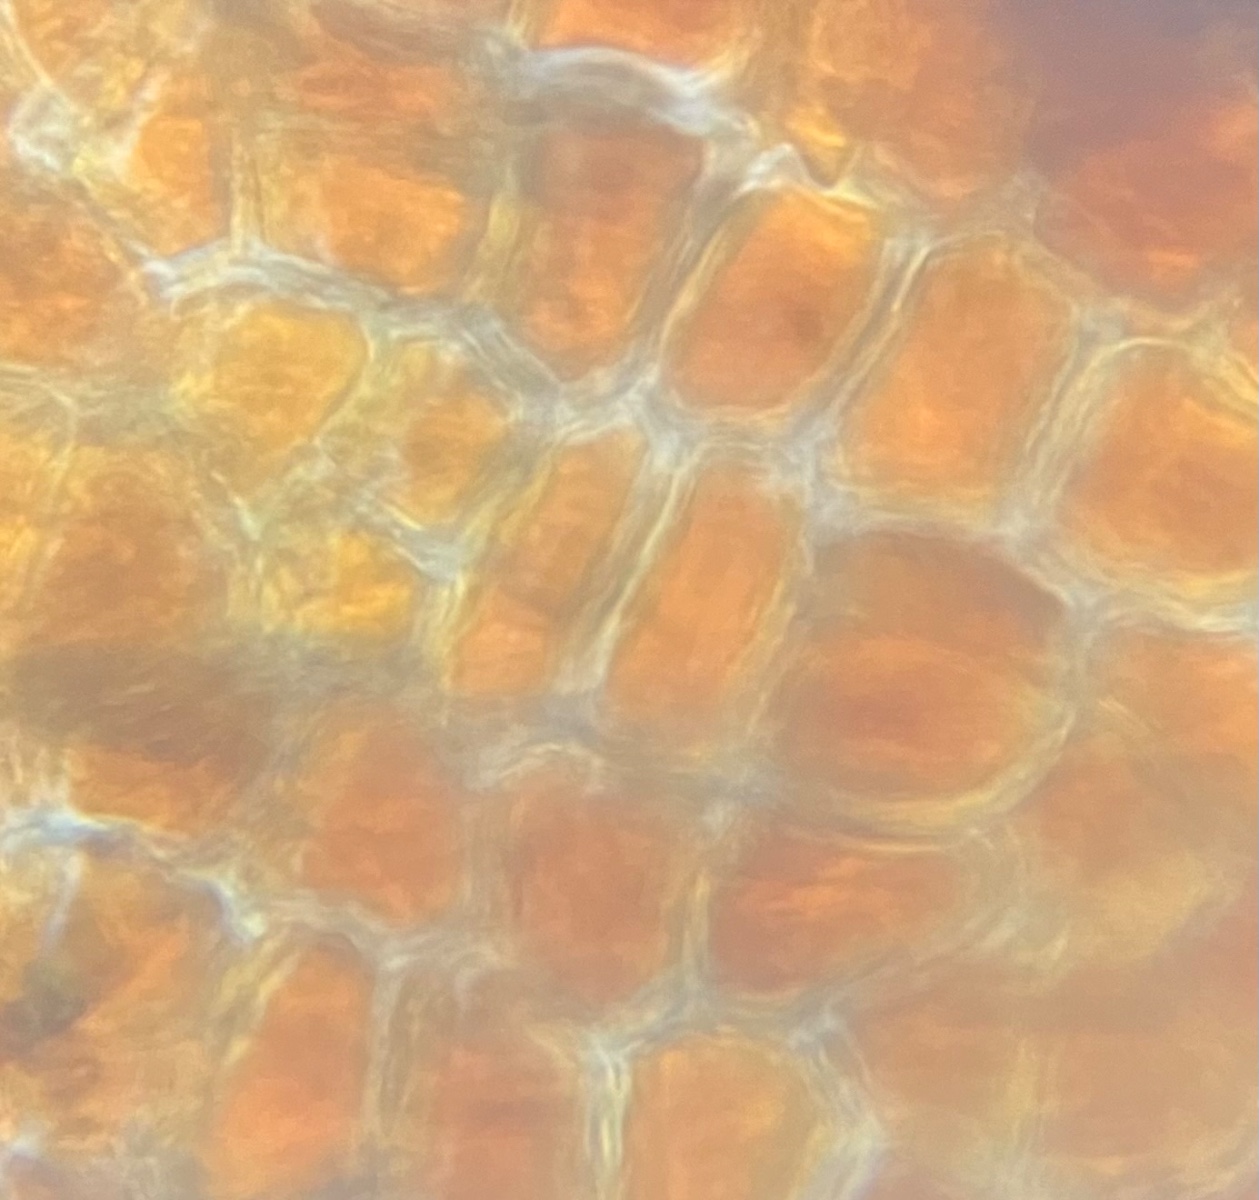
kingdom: Fungi
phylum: Ascomycota
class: Dothideomycetes
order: Botryosphaeriales
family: Botryosphaeriaceae
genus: Diplodia
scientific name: Diplodia cydoniae
